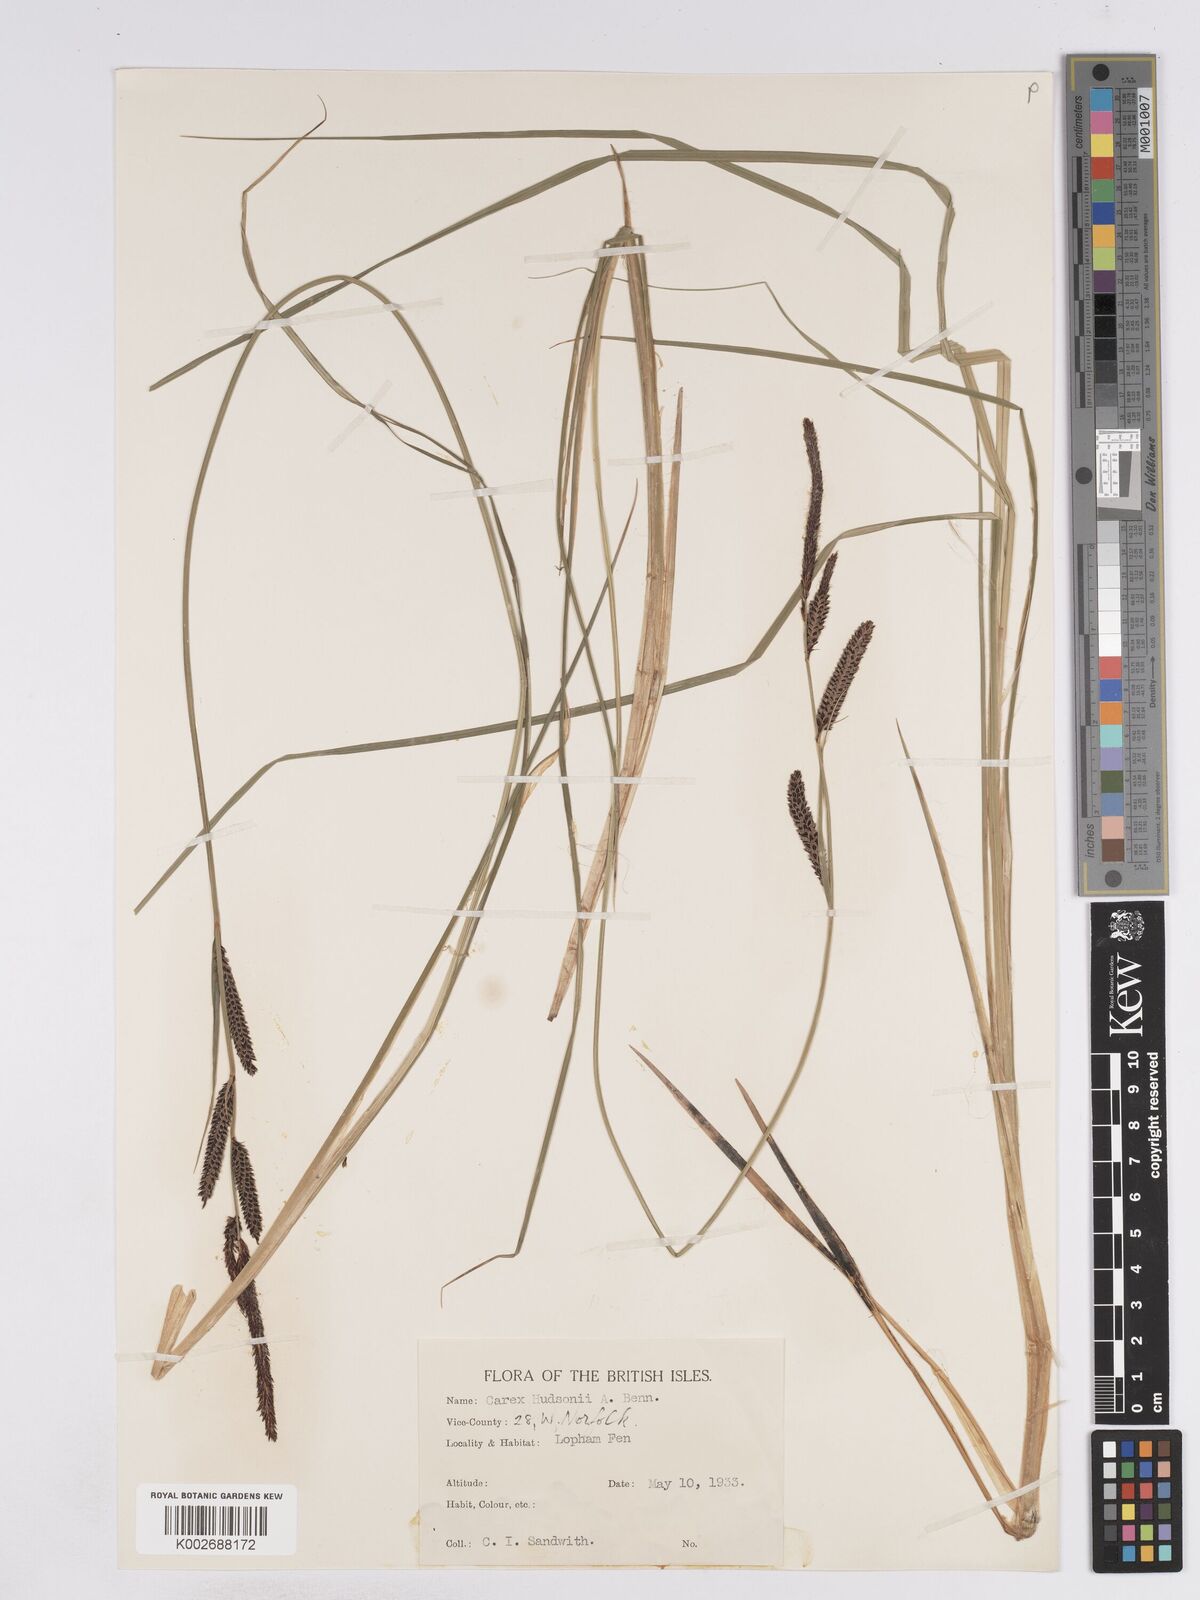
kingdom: Plantae
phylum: Tracheophyta
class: Liliopsida
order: Poales
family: Cyperaceae
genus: Carex
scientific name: Carex elata
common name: Tufted sedge
